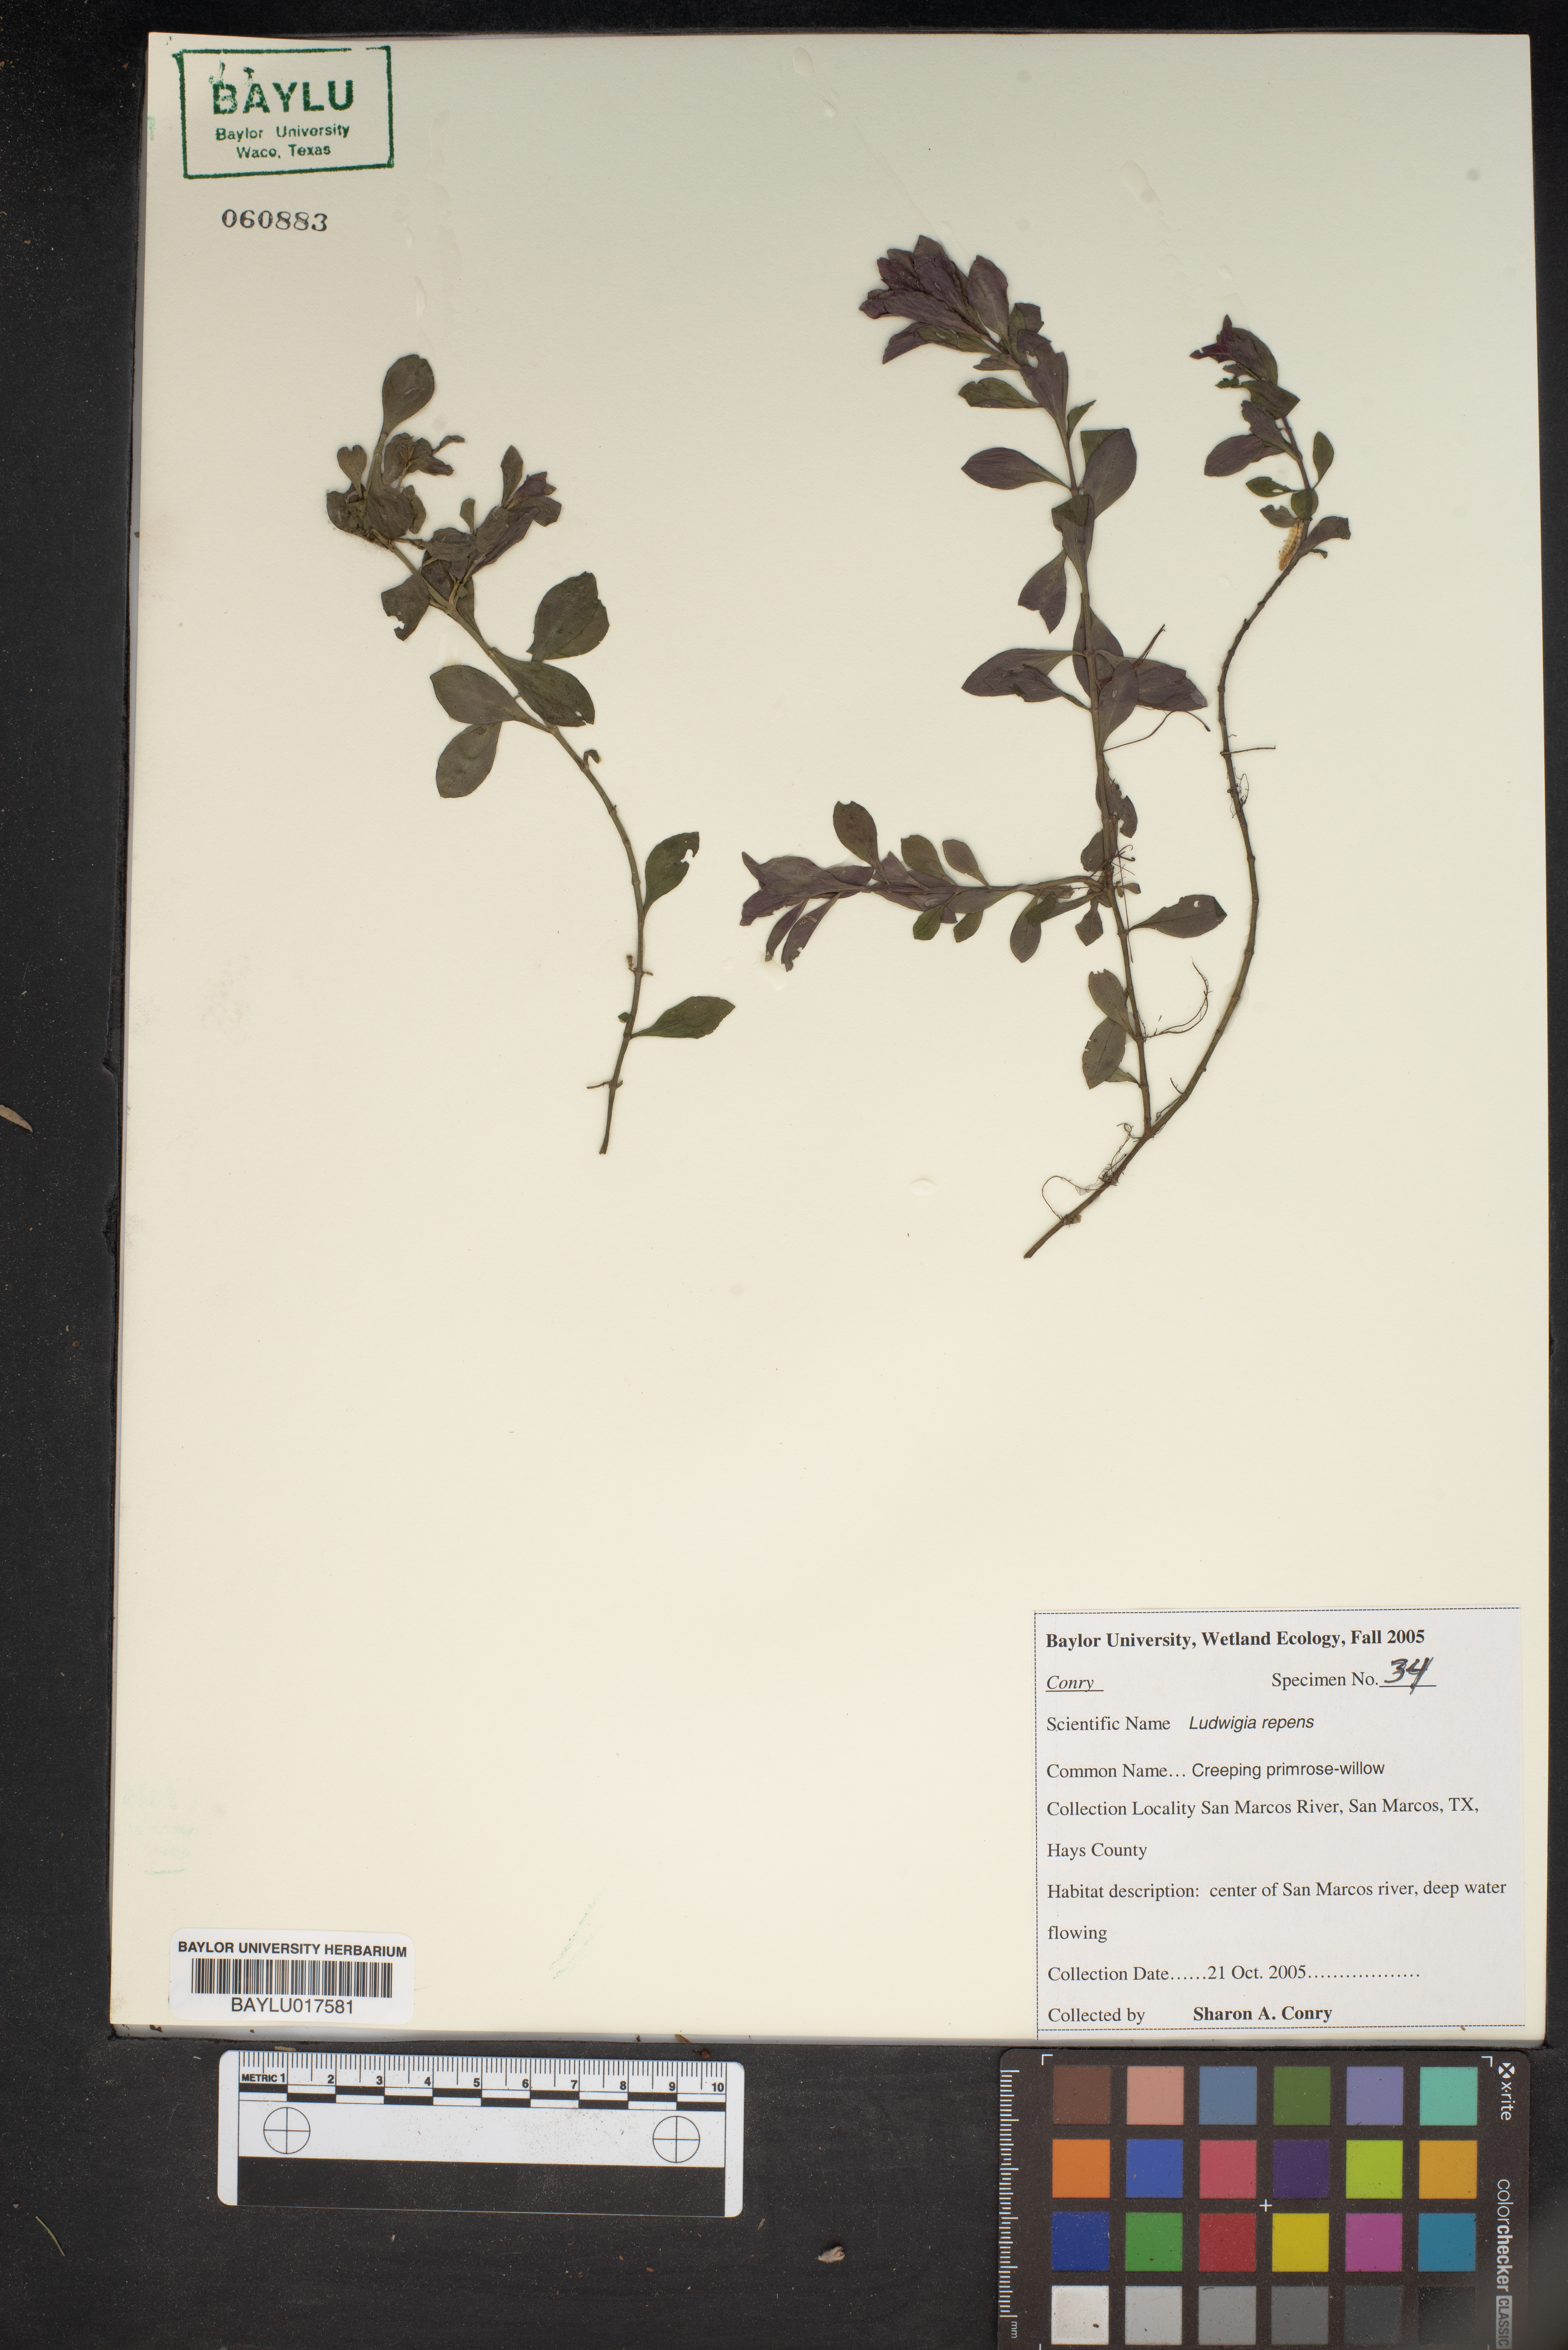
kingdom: Plantae
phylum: Tracheophyta
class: Magnoliopsida
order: Myrtales
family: Onagraceae
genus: Ludwigia
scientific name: Ludwigia repens
